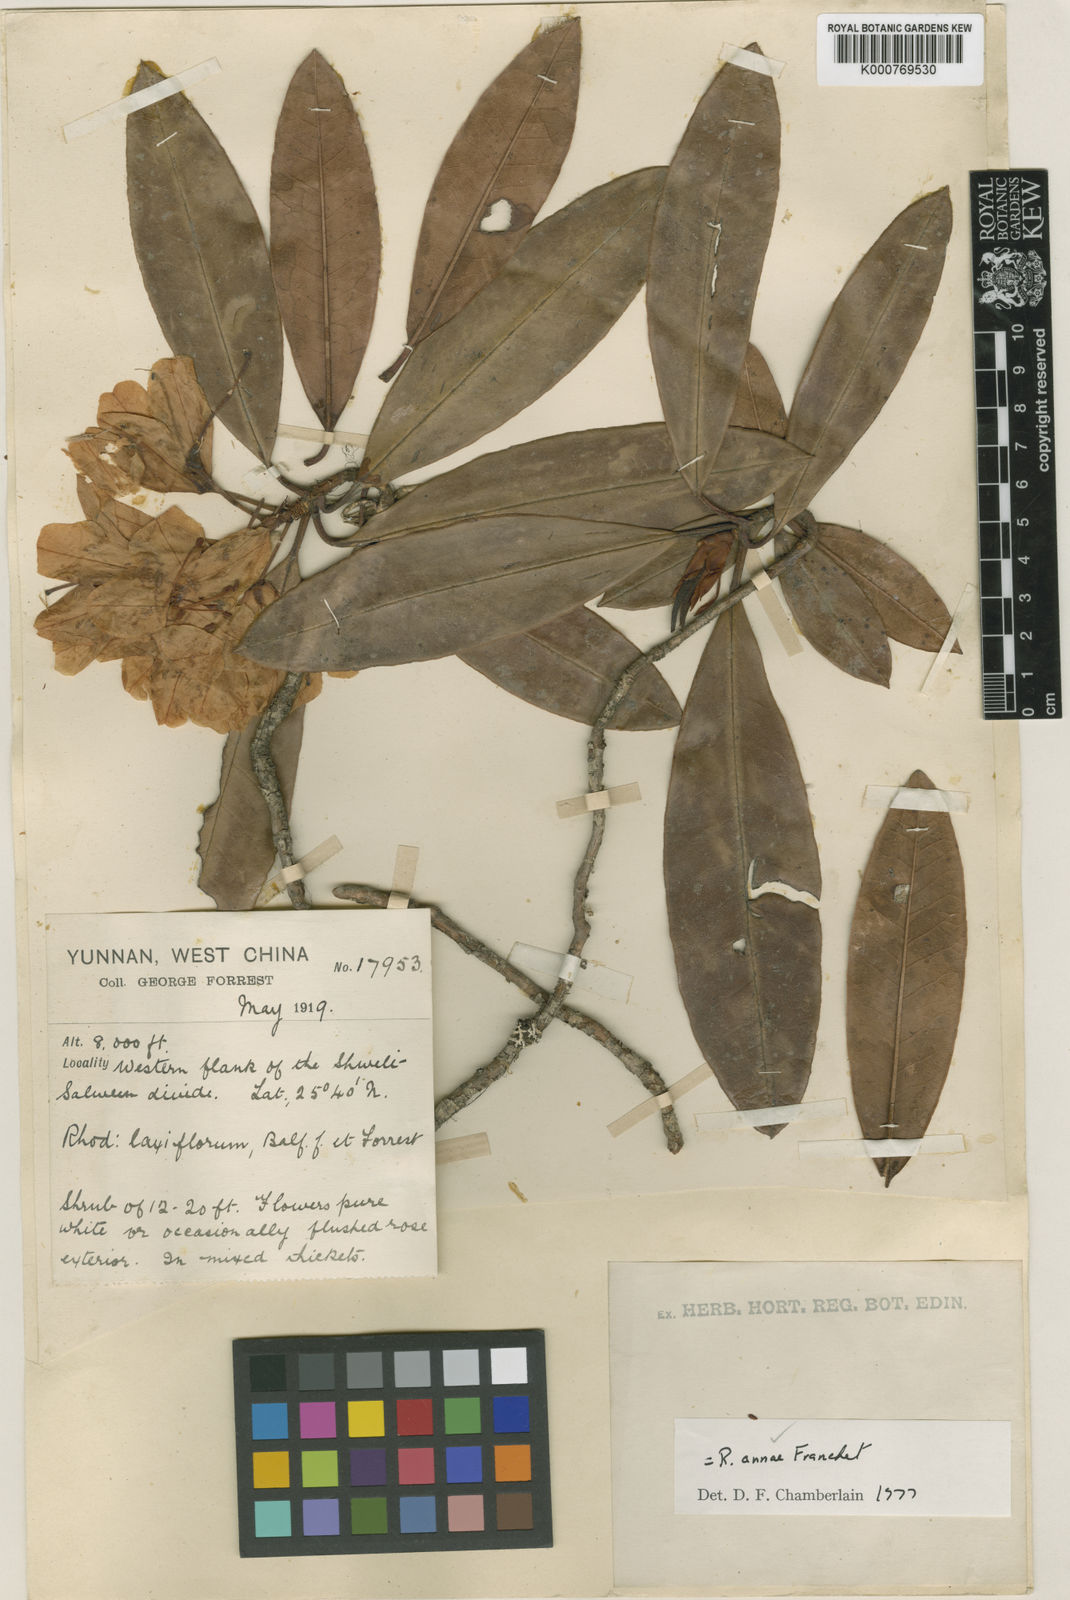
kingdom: Plantae
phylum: Tracheophyta
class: Magnoliopsida
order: Ericales
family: Ericaceae
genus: Rhododendron
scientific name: Rhododendron annae
